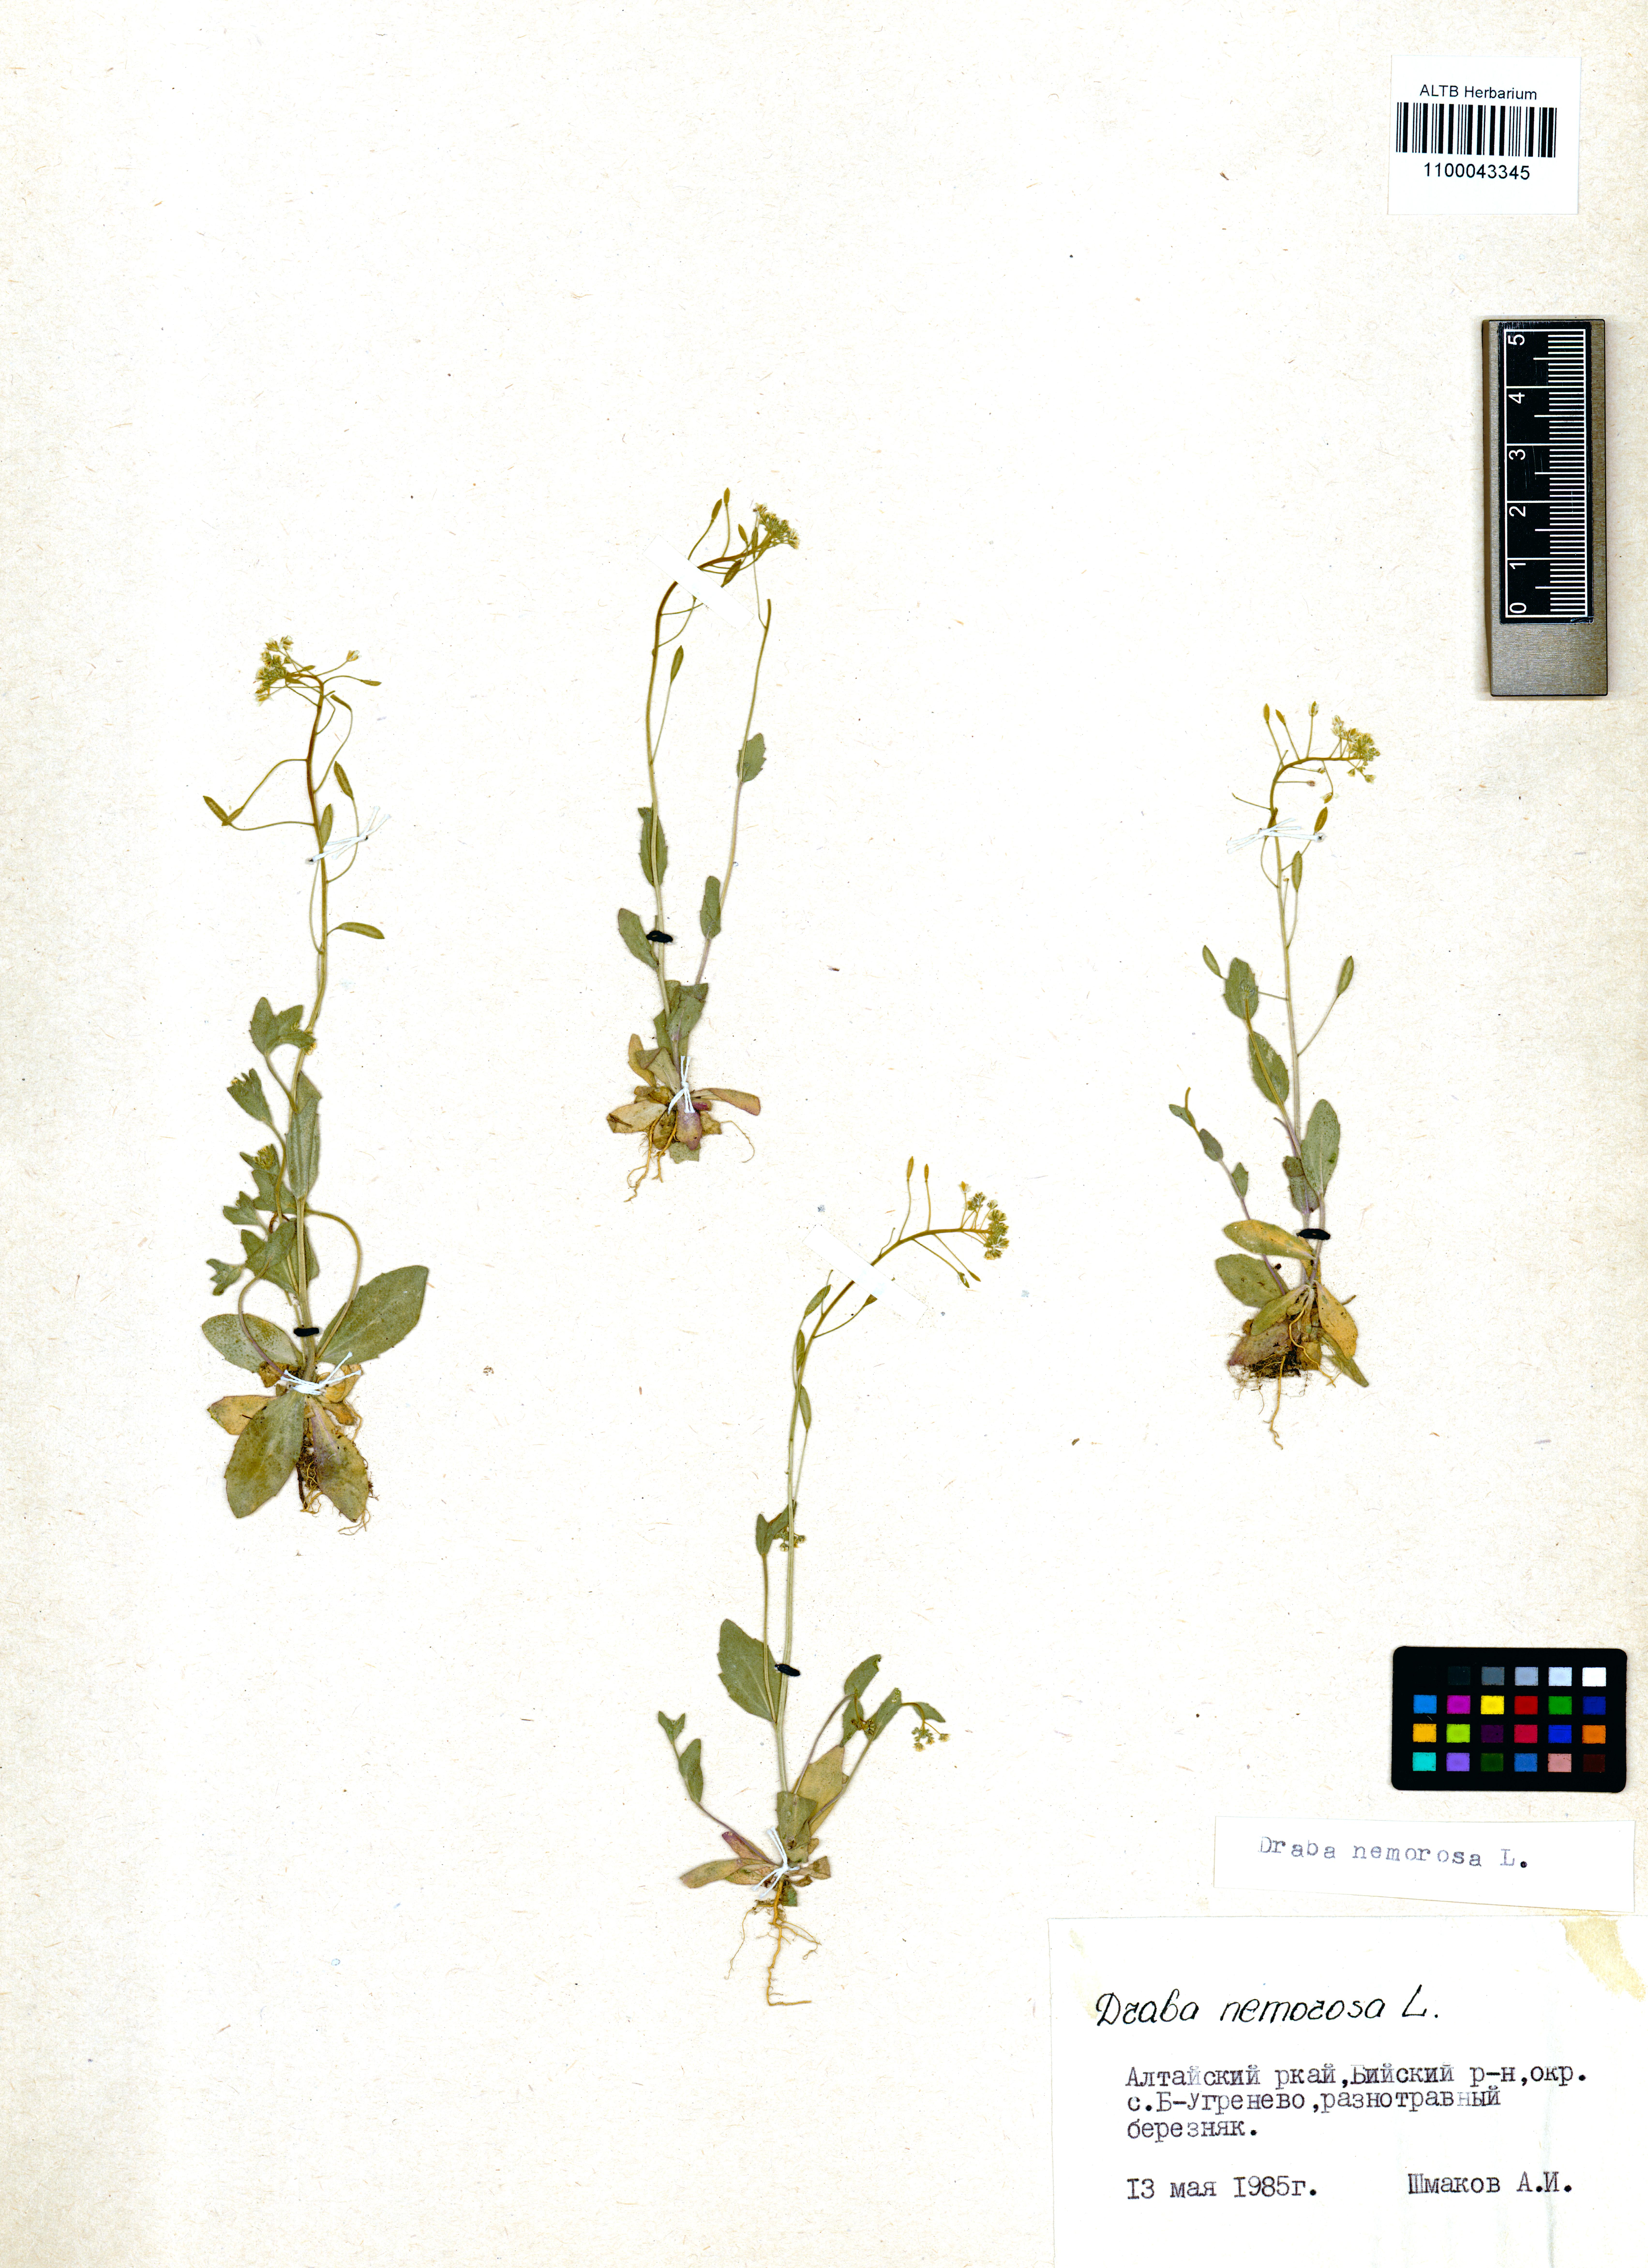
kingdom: Plantae
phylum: Tracheophyta
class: Magnoliopsida
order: Brassicales
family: Brassicaceae
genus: Draba
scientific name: Draba nemorosa
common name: Wood whitlow-grass
